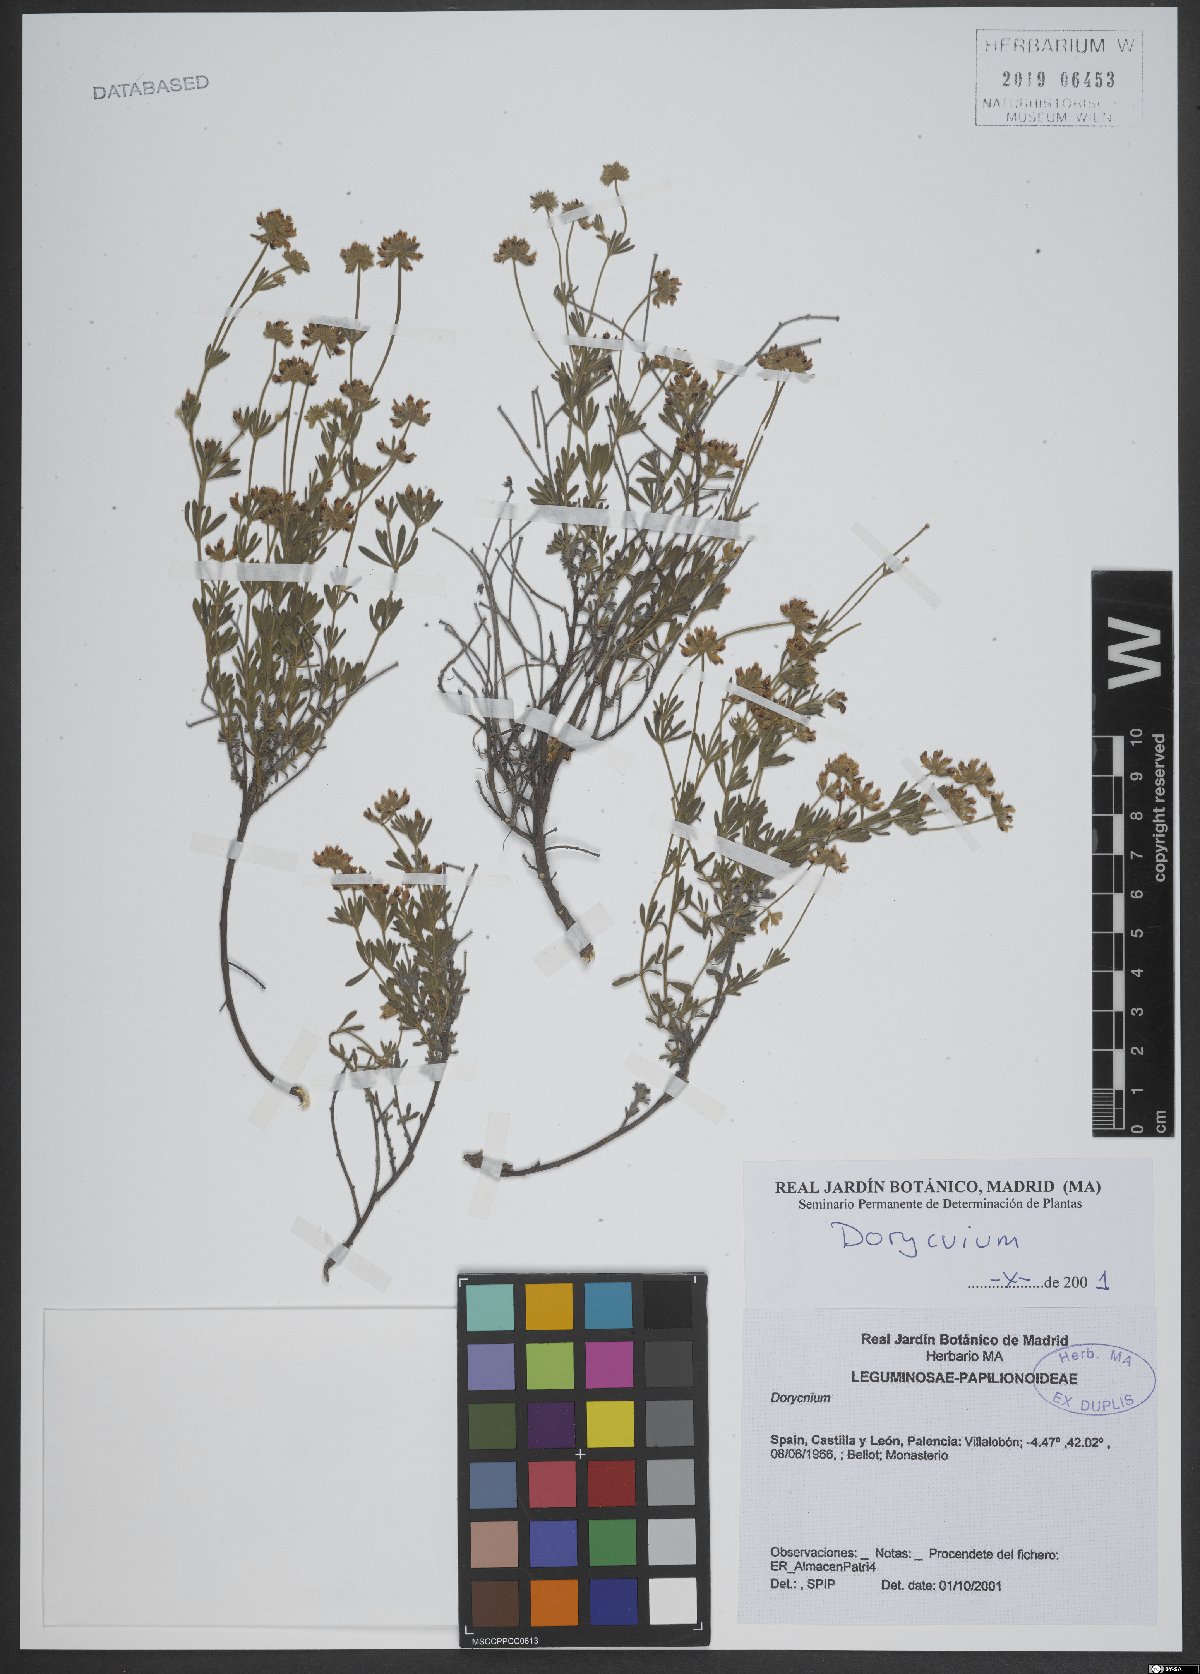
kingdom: Plantae
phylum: Tracheophyta
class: Magnoliopsida
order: Fabales
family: Fabaceae
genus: Lotus
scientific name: Lotus
